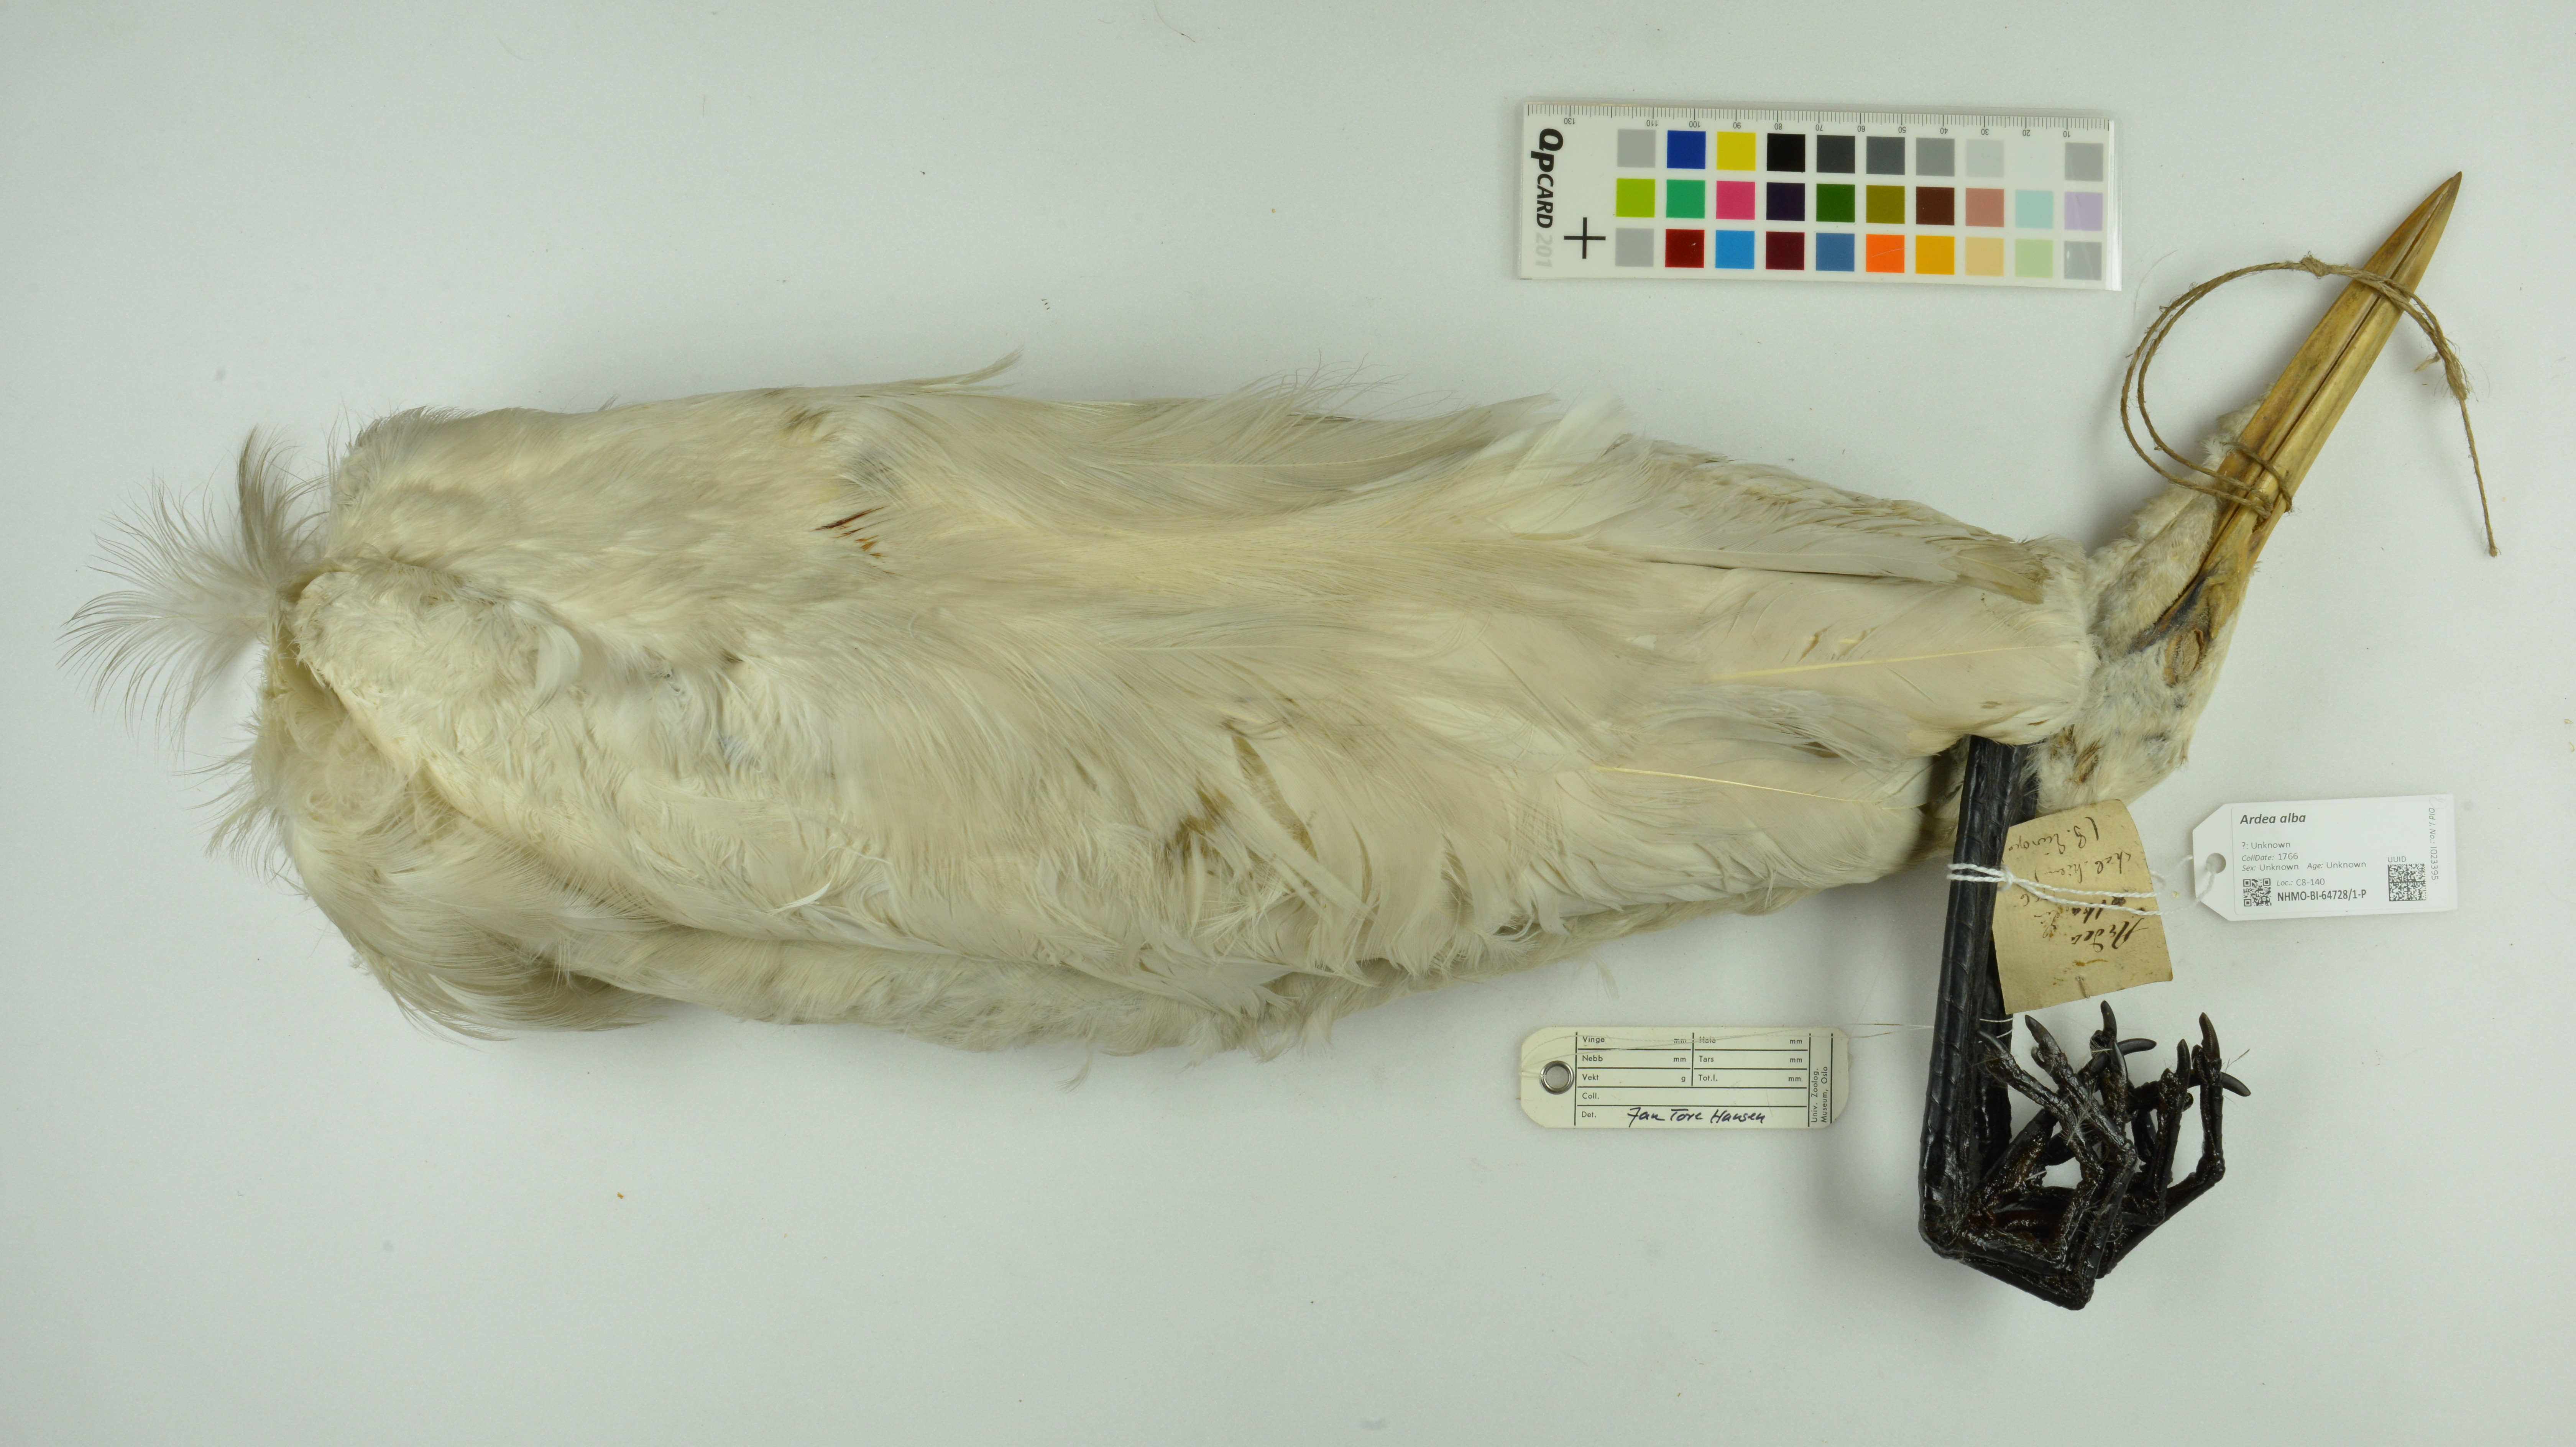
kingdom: Animalia
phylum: Chordata
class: Aves
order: Pelecaniformes
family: Ardeidae
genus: Ardea
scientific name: Ardea alba
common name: Great egret
